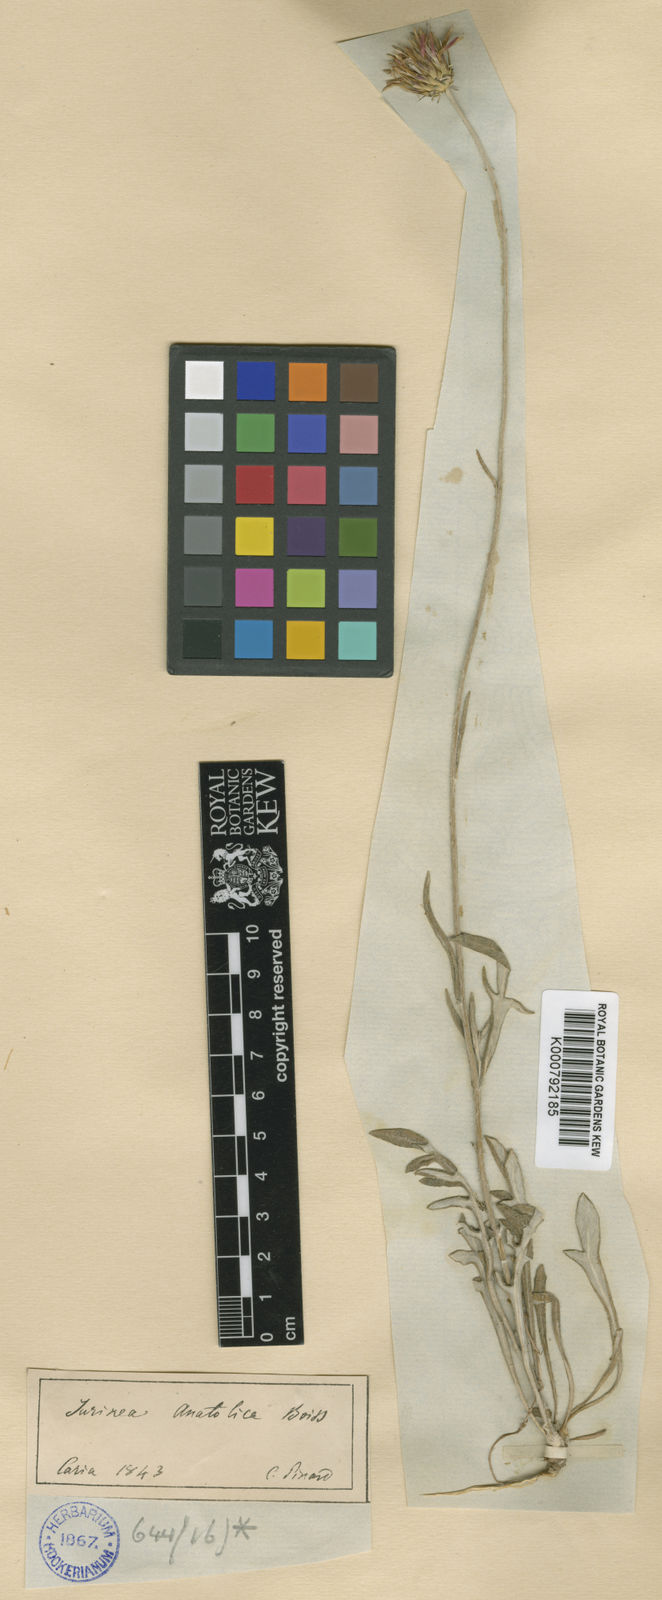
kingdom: Plantae
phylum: Tracheophyta
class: Magnoliopsida
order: Asterales
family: Asteraceae
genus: Jurinea
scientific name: Jurinea consanguinea
